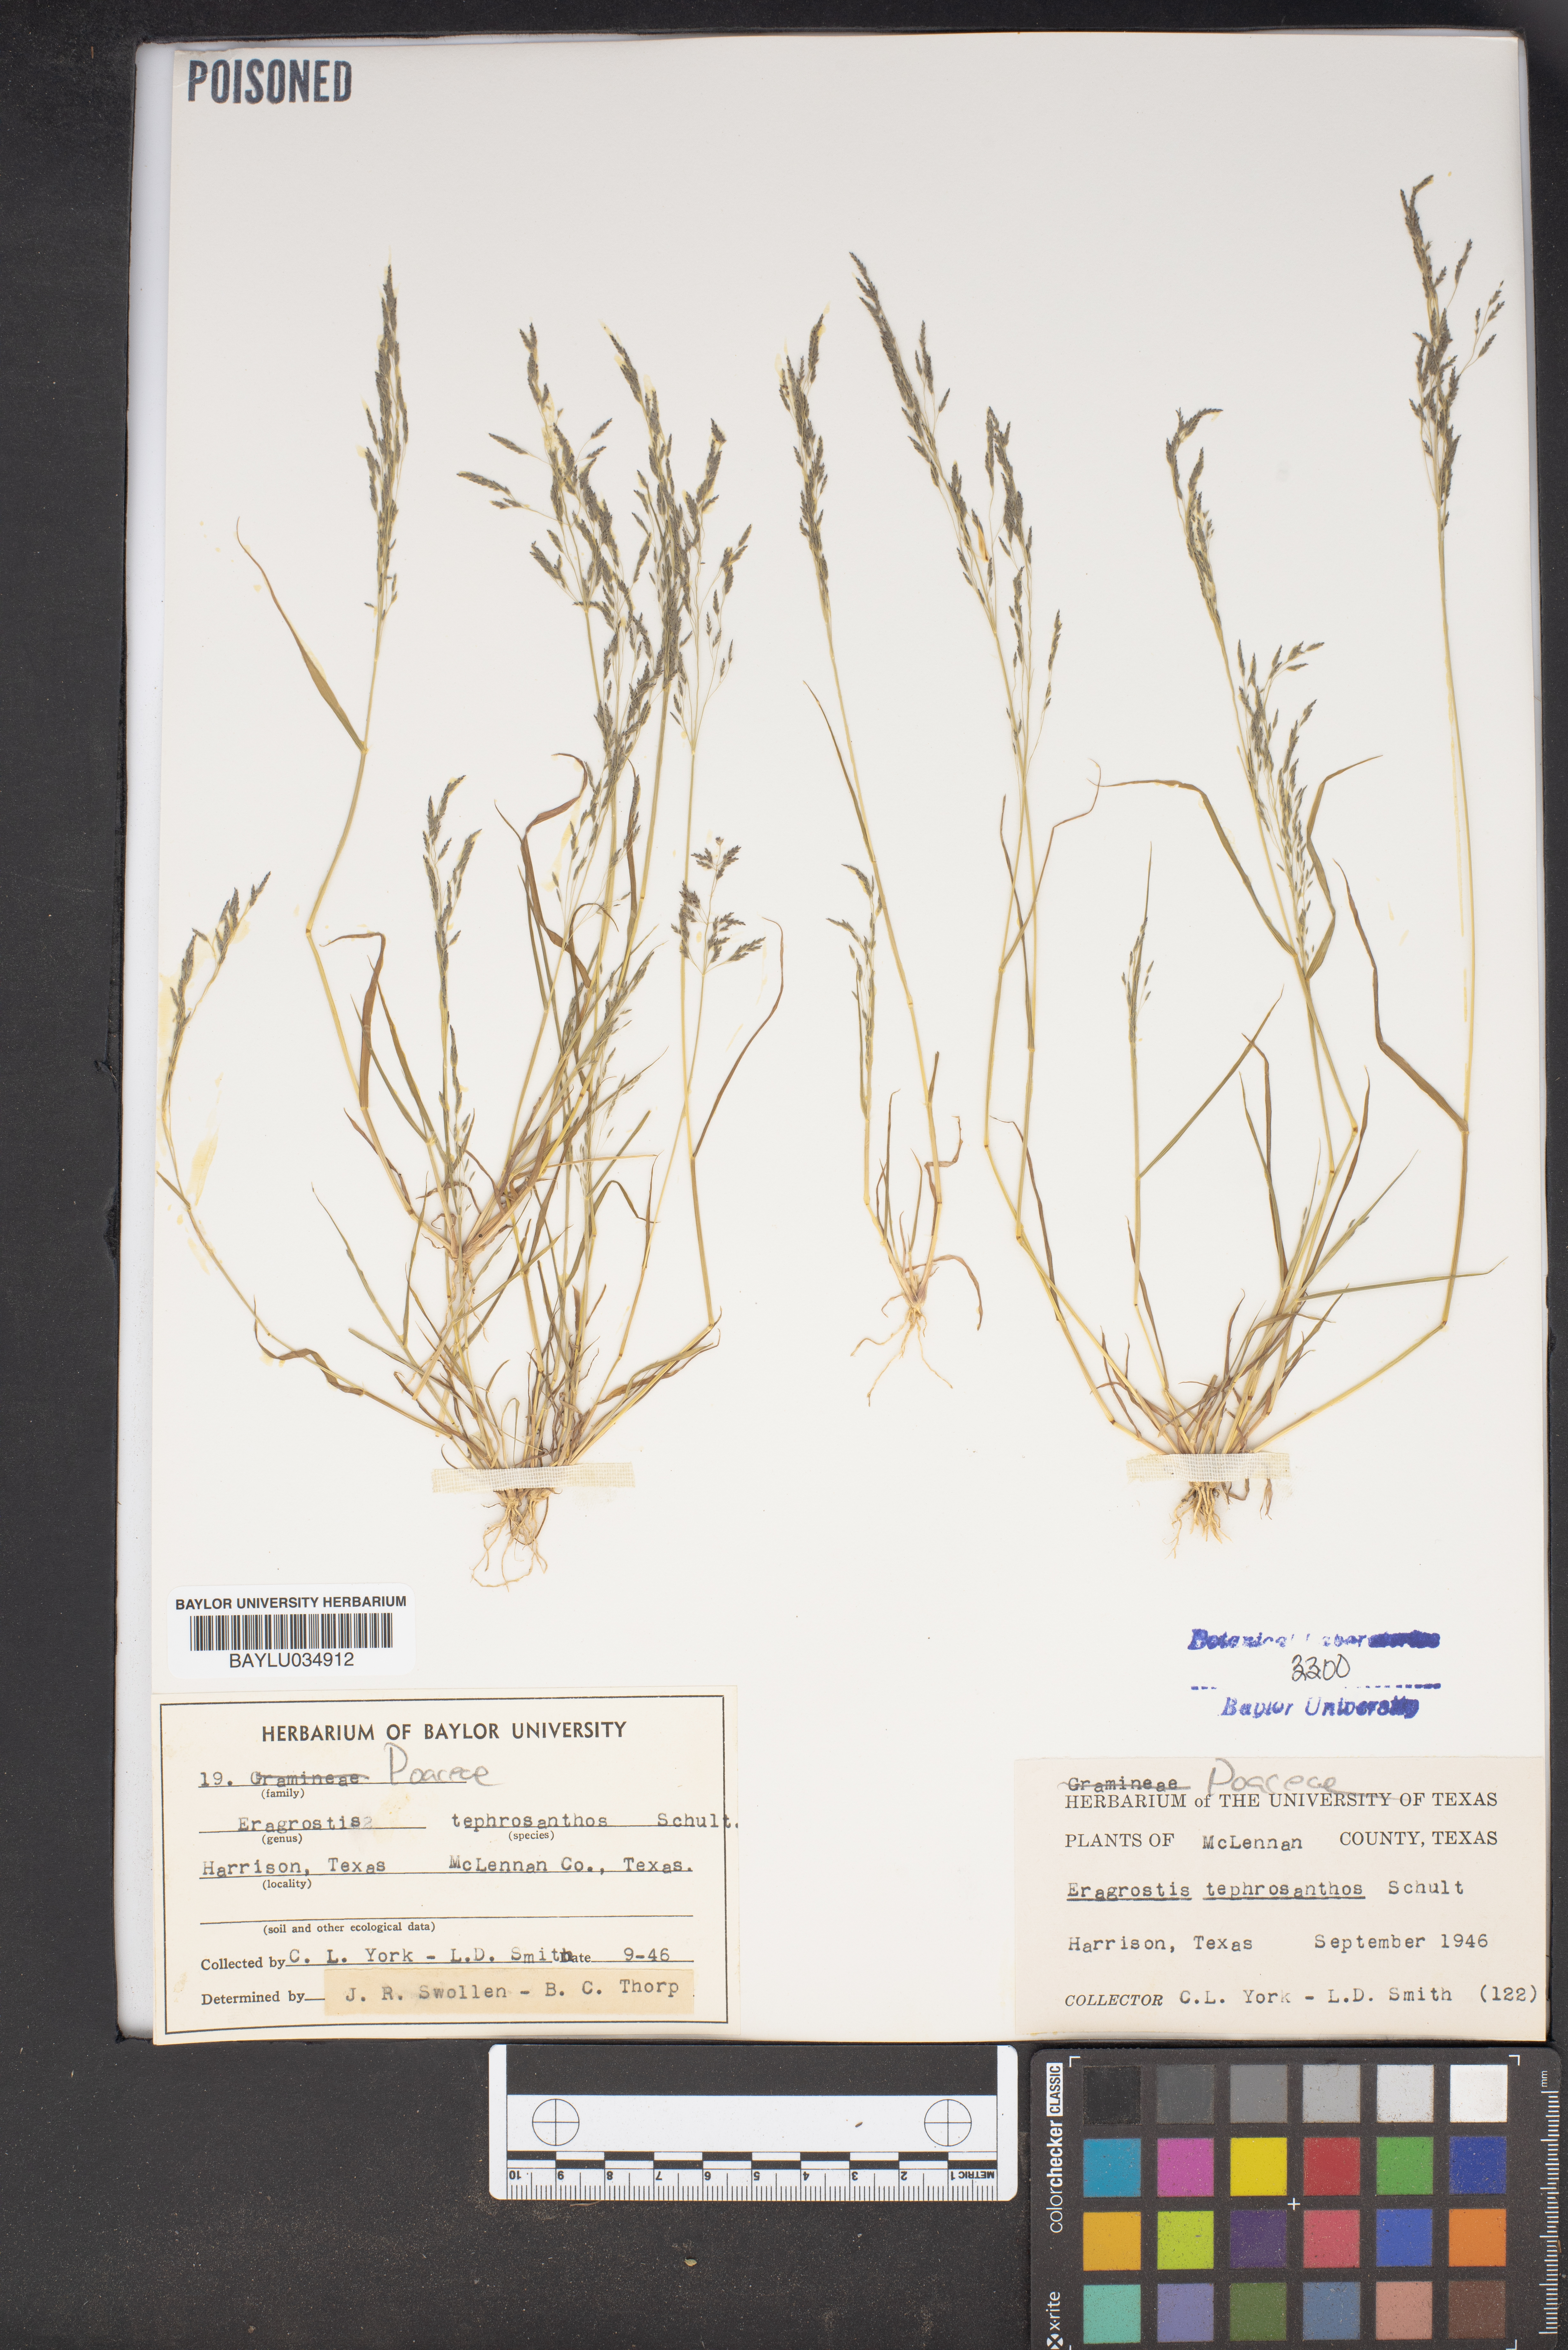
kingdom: Plantae
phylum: Tracheophyta
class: Liliopsida
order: Poales
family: Poaceae
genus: Eragrostis
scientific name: Eragrostis tephrosanthos
